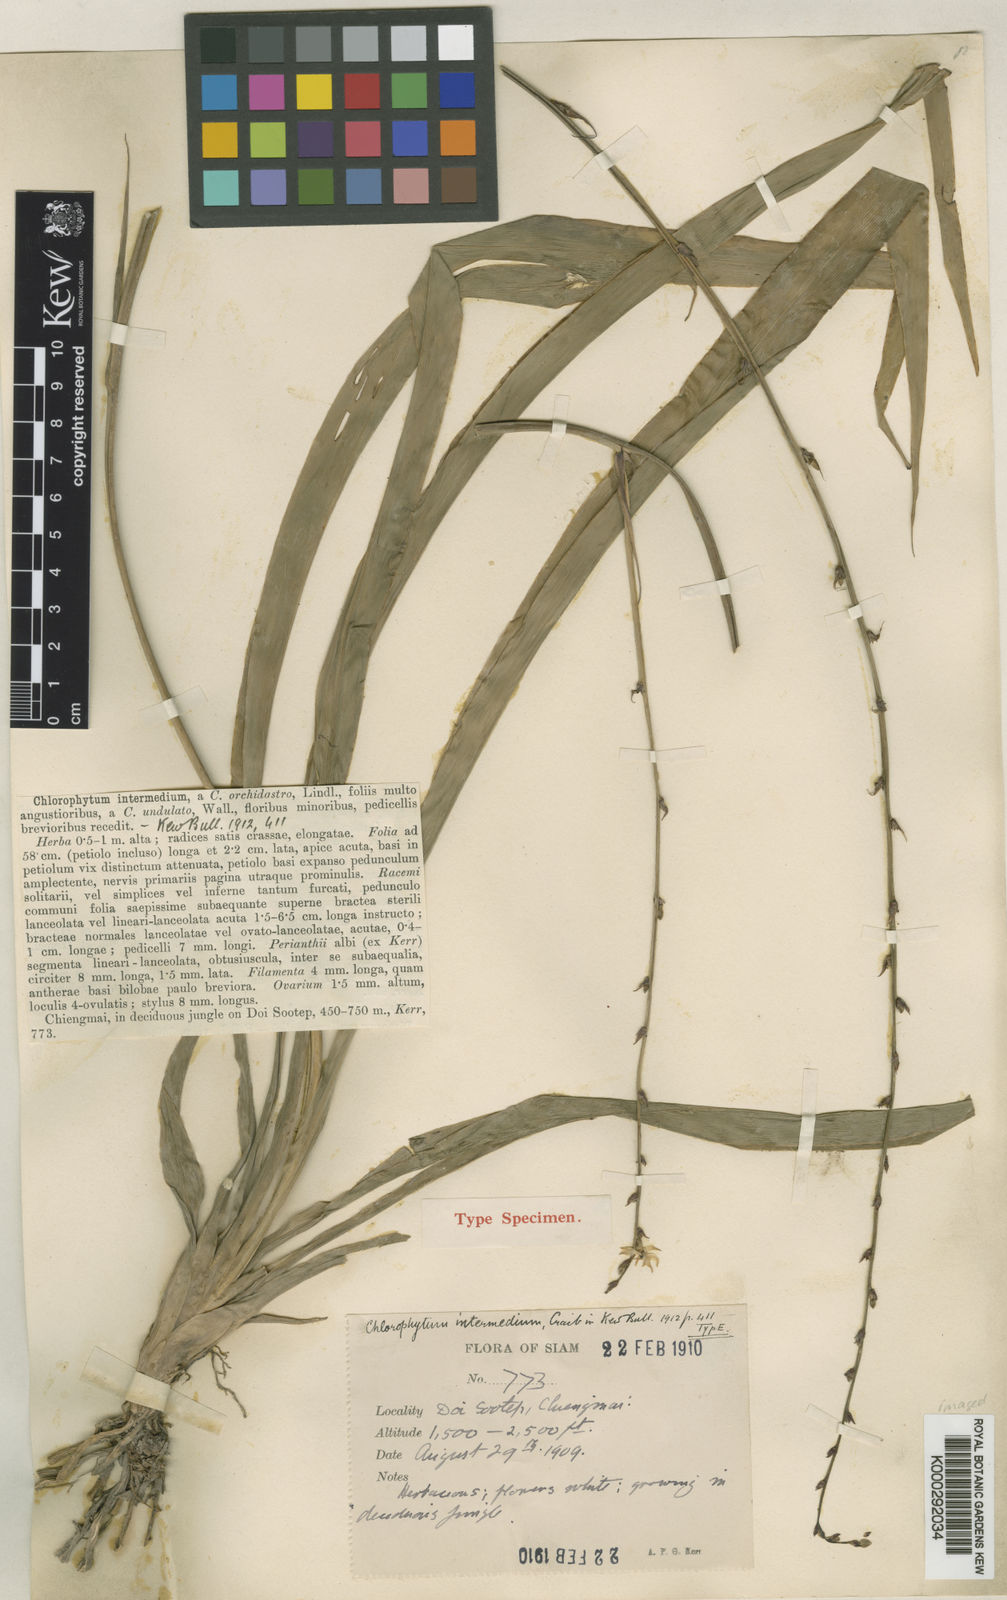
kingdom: Plantae
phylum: Tracheophyta
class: Liliopsida
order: Asparagales
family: Asparagaceae
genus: Chlorophytum
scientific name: Chlorophytum intermedium
